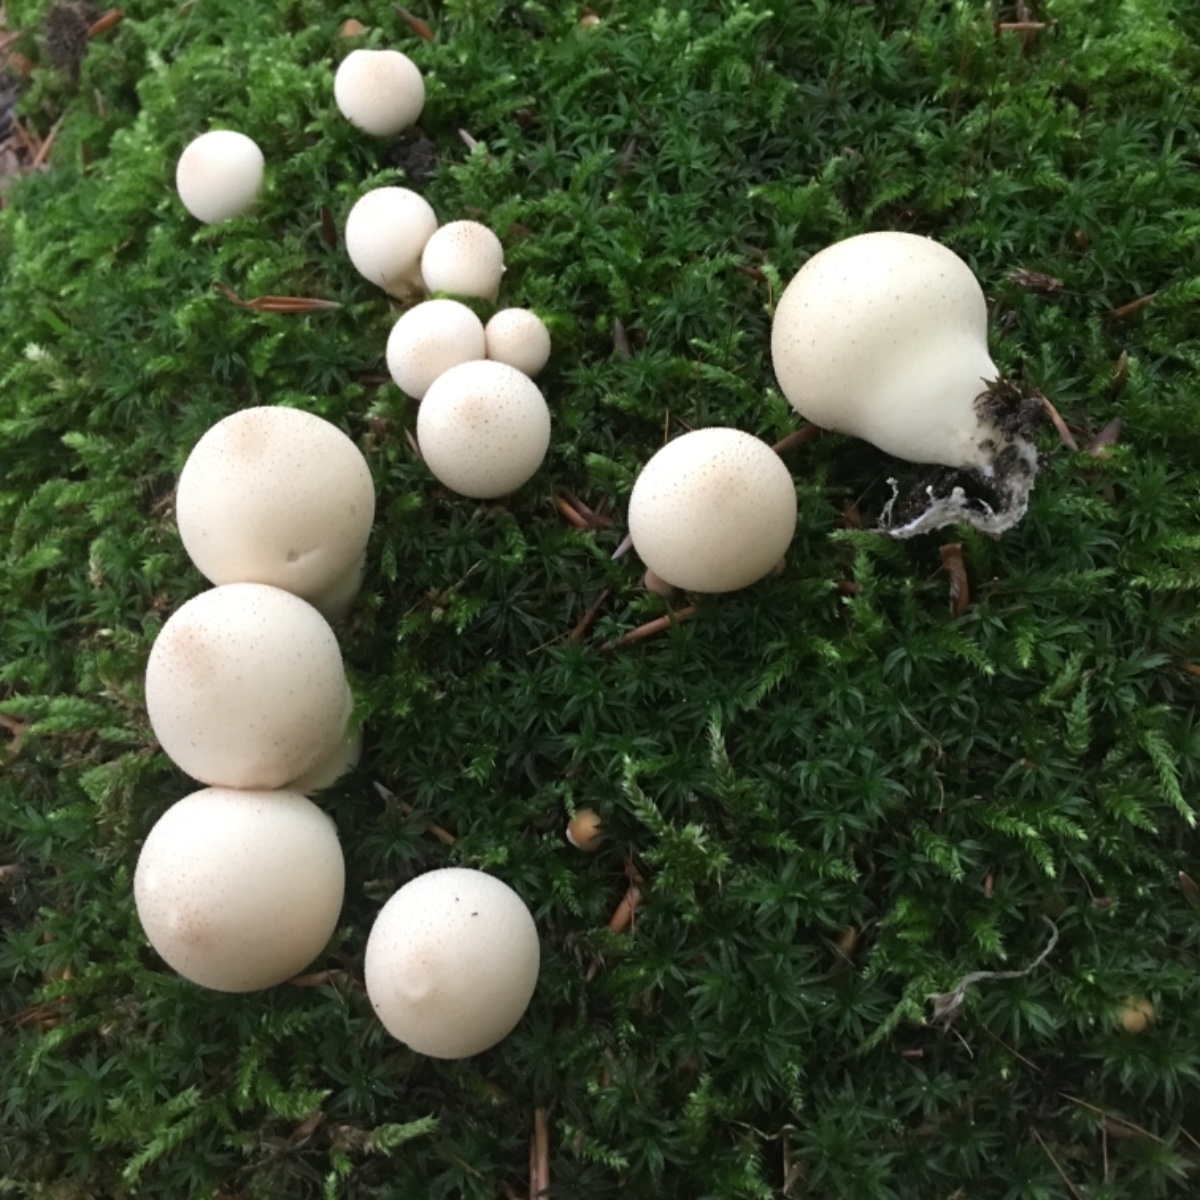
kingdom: Fungi
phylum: Basidiomycota
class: Agaricomycetes
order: Agaricales
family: Lycoperdaceae
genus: Apioperdon
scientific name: Apioperdon pyriforme
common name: pære-støvbold
